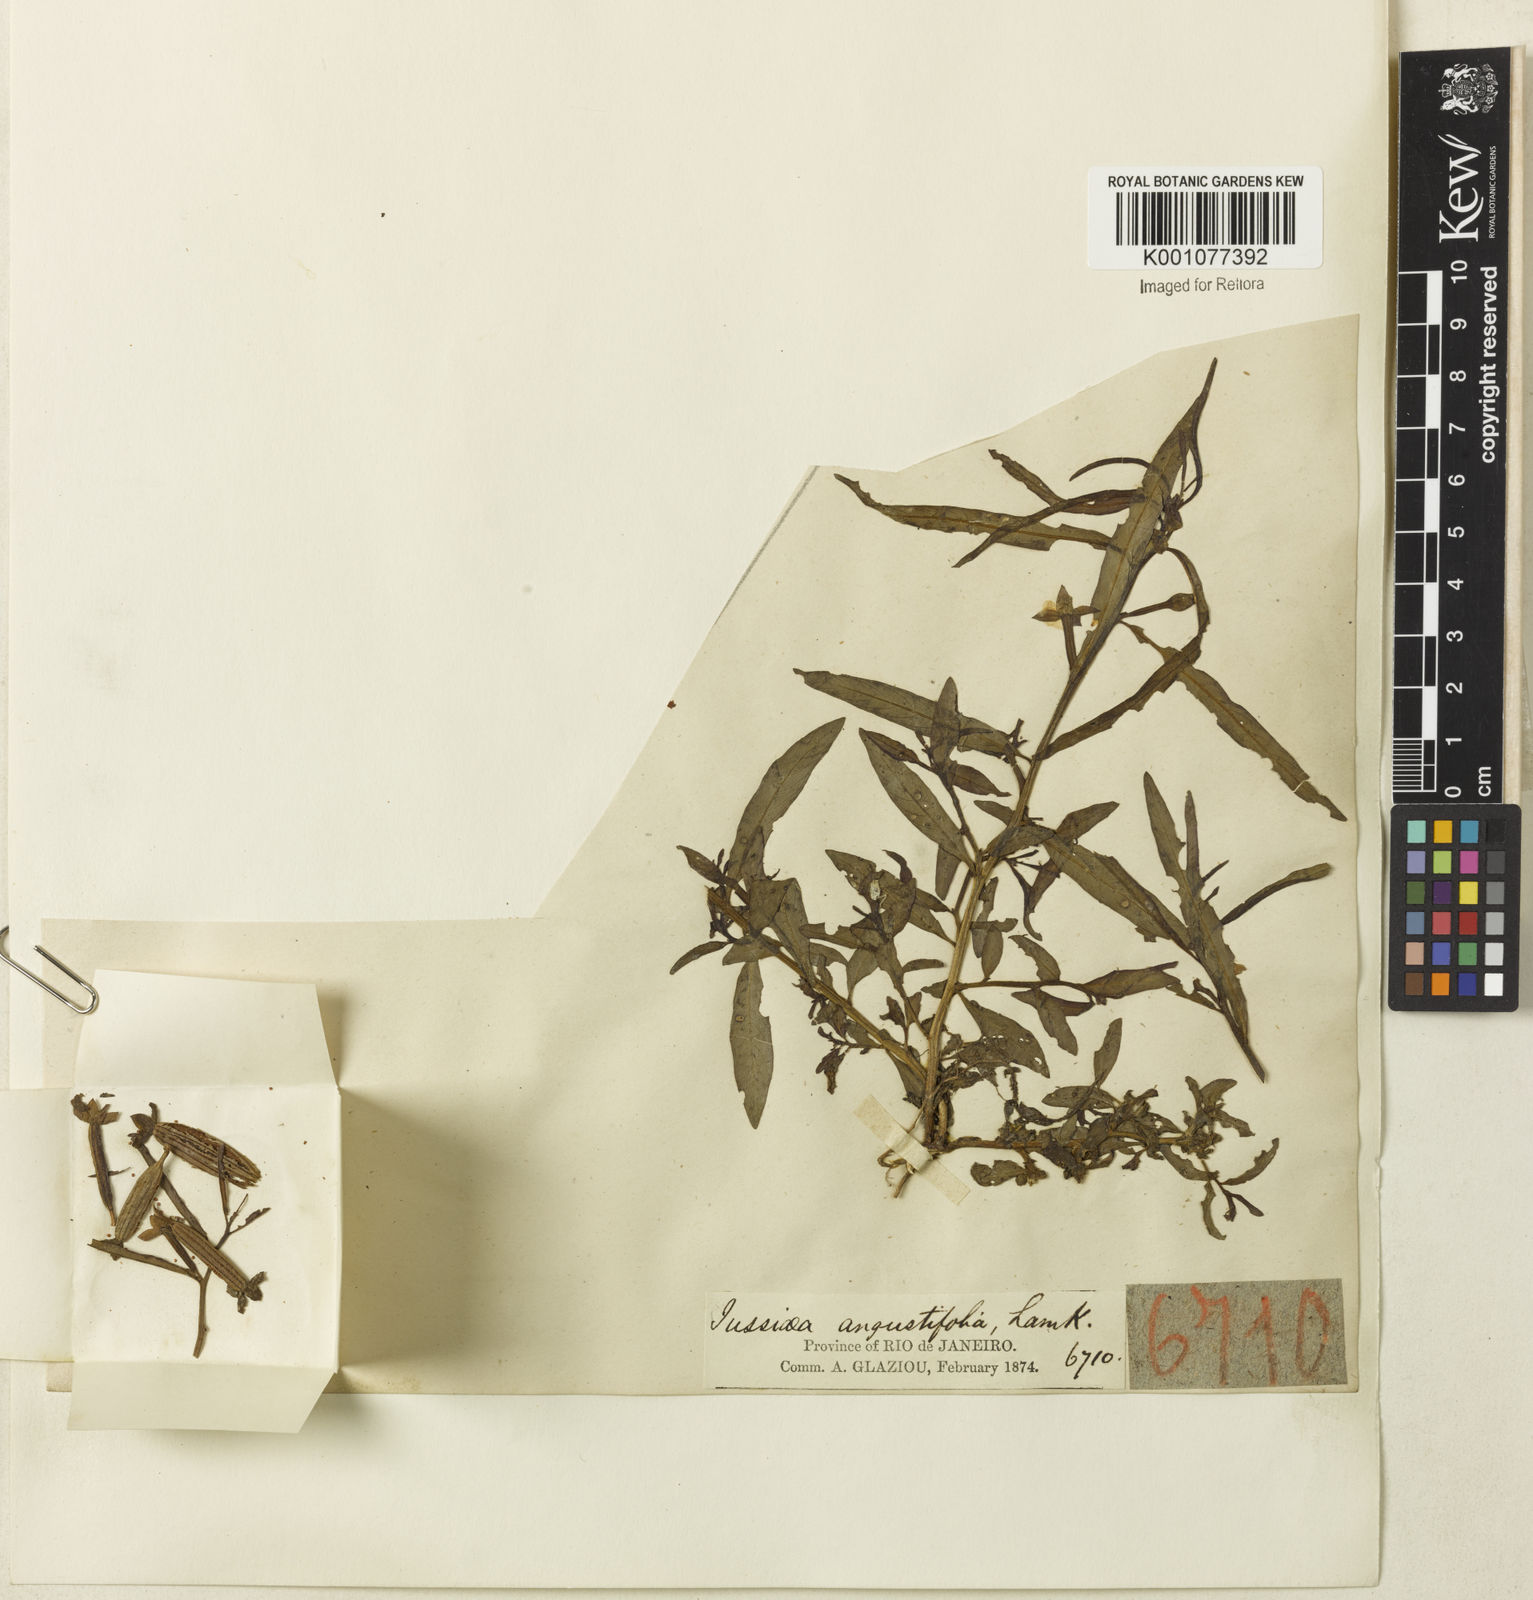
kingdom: Plantae
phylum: Tracheophyta
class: Magnoliopsida
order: Myrtales
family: Onagraceae
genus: Ludwigia
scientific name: Ludwigia octovalvis
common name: Water-primrose
